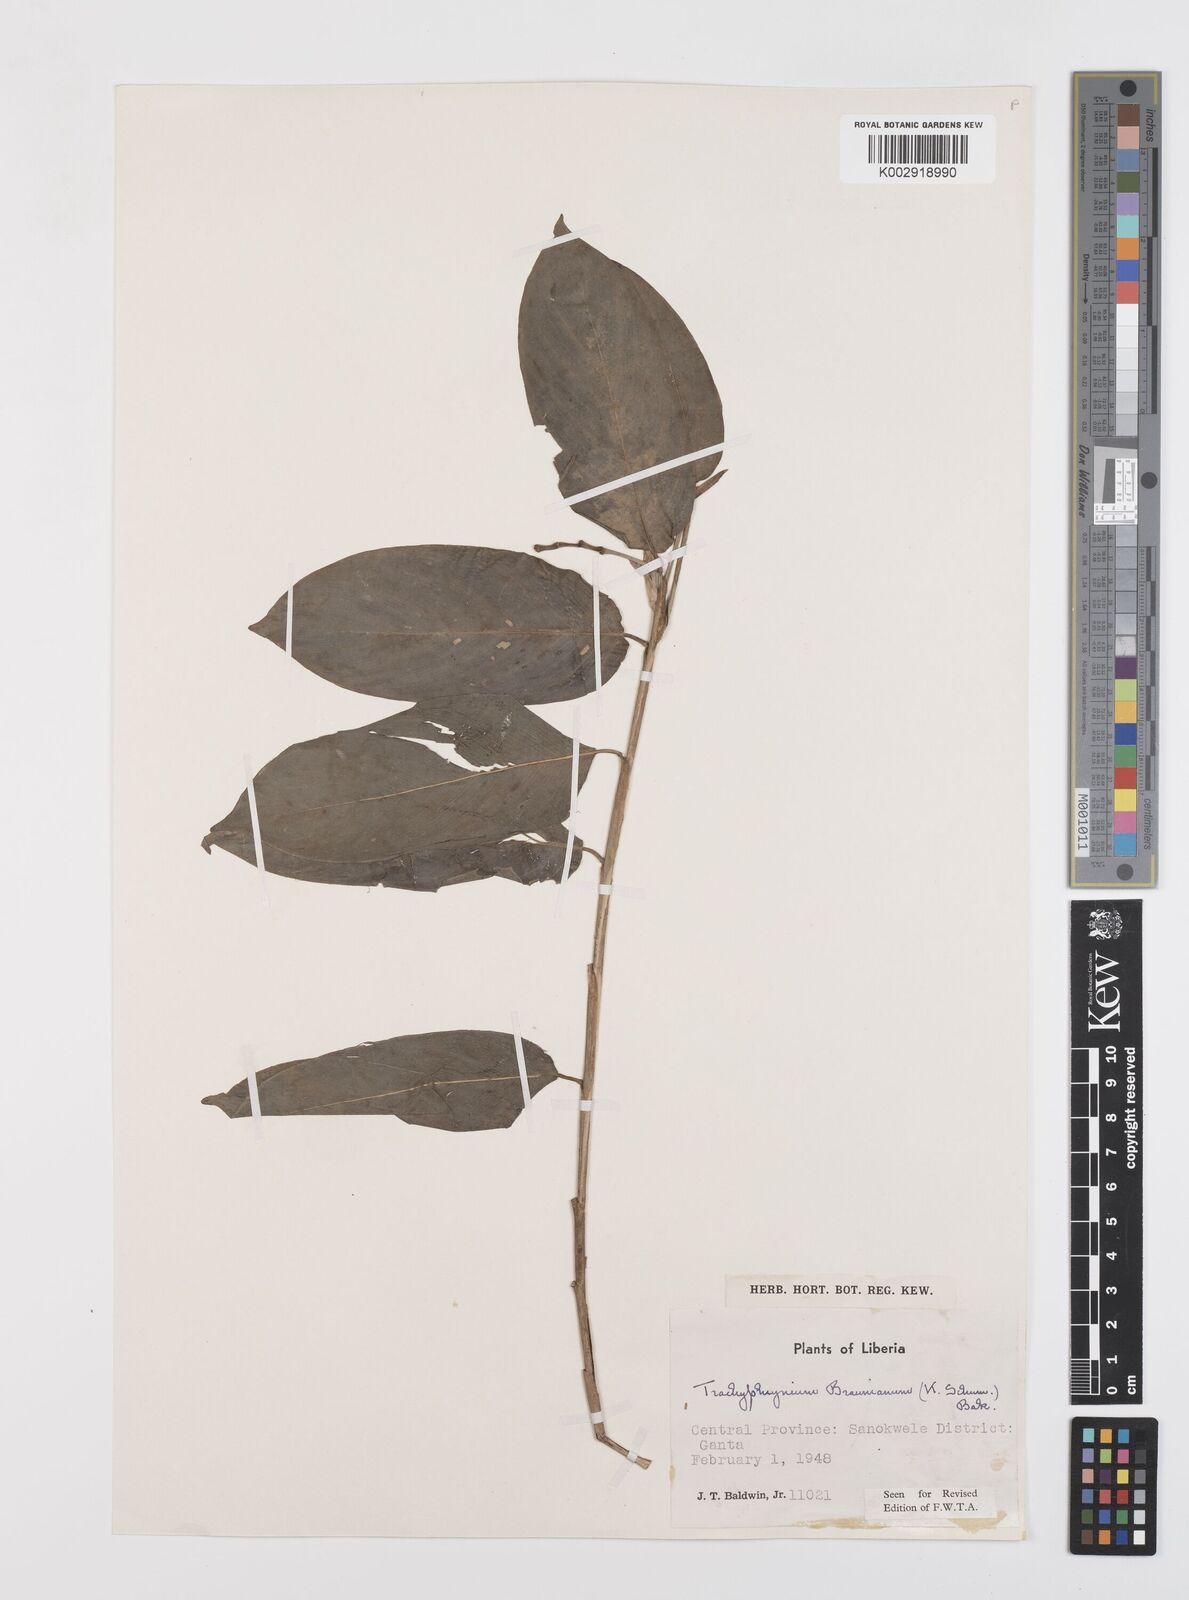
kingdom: Plantae
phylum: Tracheophyta
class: Liliopsida
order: Zingiberales
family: Marantaceae
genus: Trachyphrynium
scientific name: Trachyphrynium braunianum
